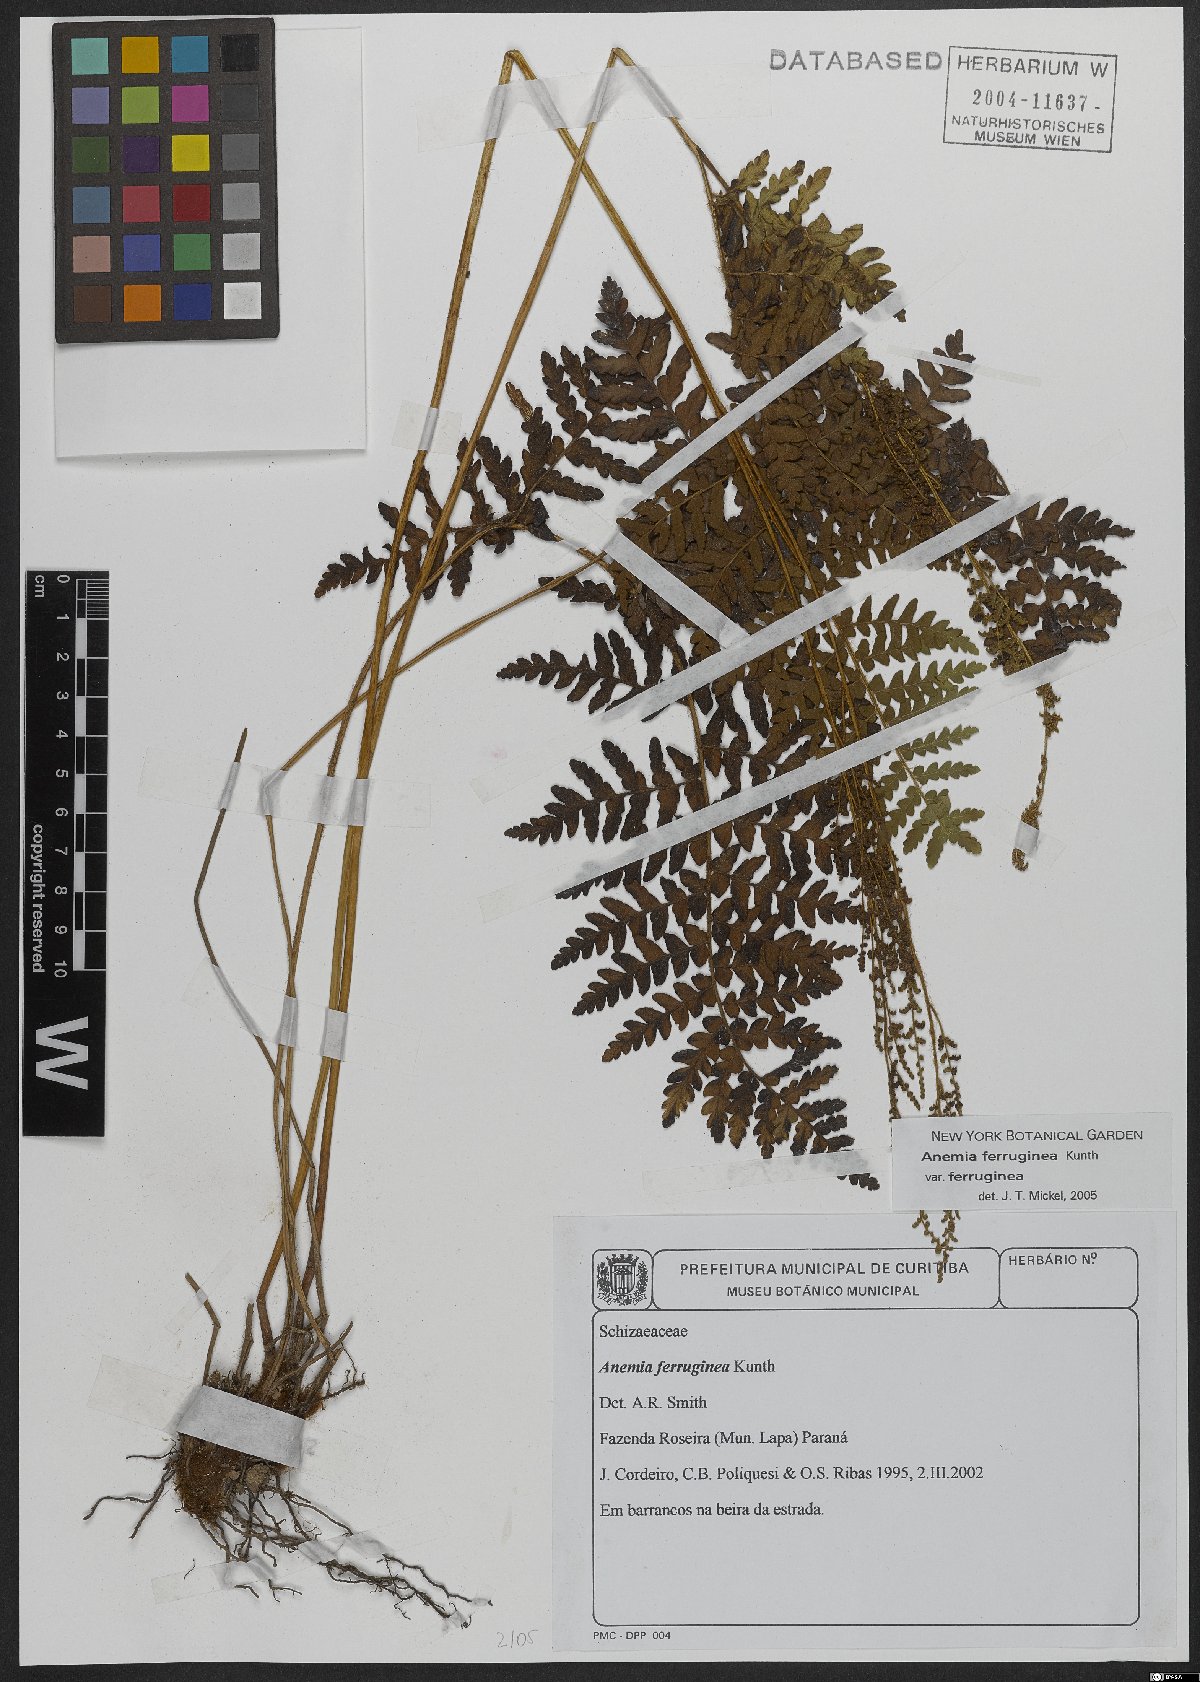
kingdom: Plantae
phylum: Tracheophyta
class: Polypodiopsida
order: Schizaeales
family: Anemiaceae
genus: Anemia
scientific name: Anemia ferruginea
